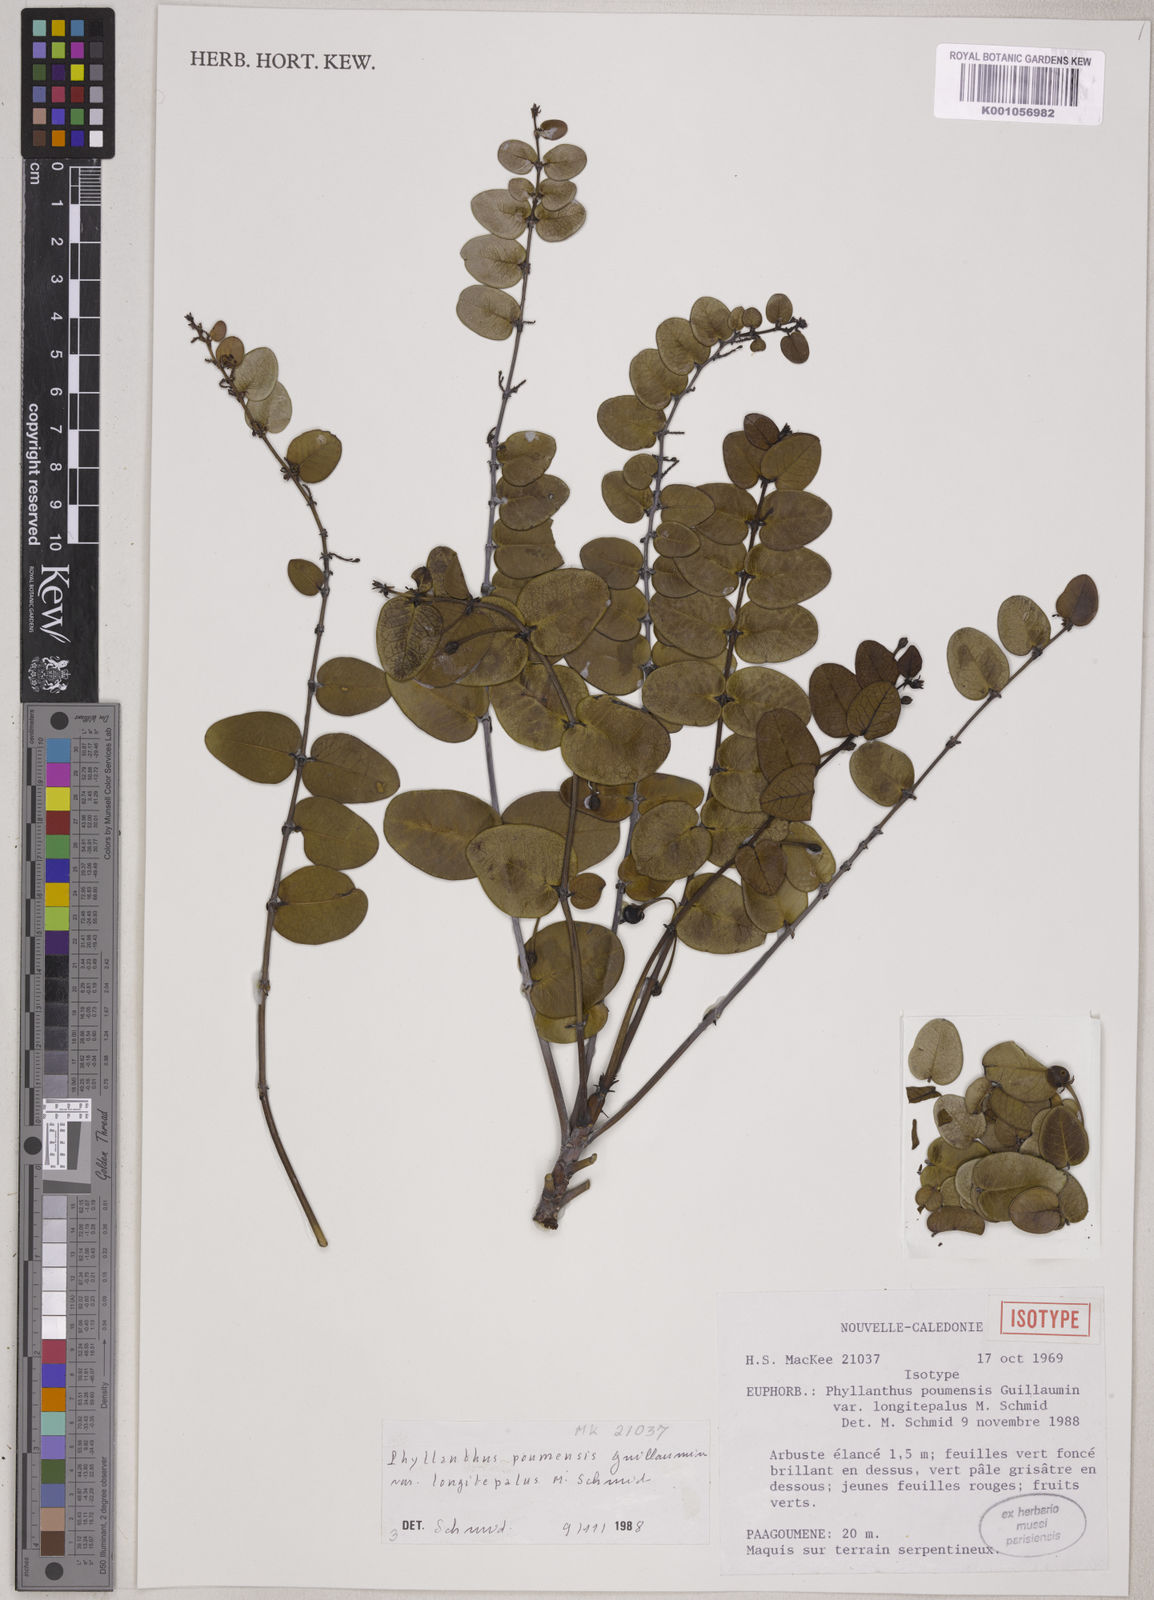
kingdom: Plantae
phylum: Tracheophyta
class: Magnoliopsida
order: Malpighiales
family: Phyllanthaceae
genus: Phyllanthus
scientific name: Phyllanthus poumensis
